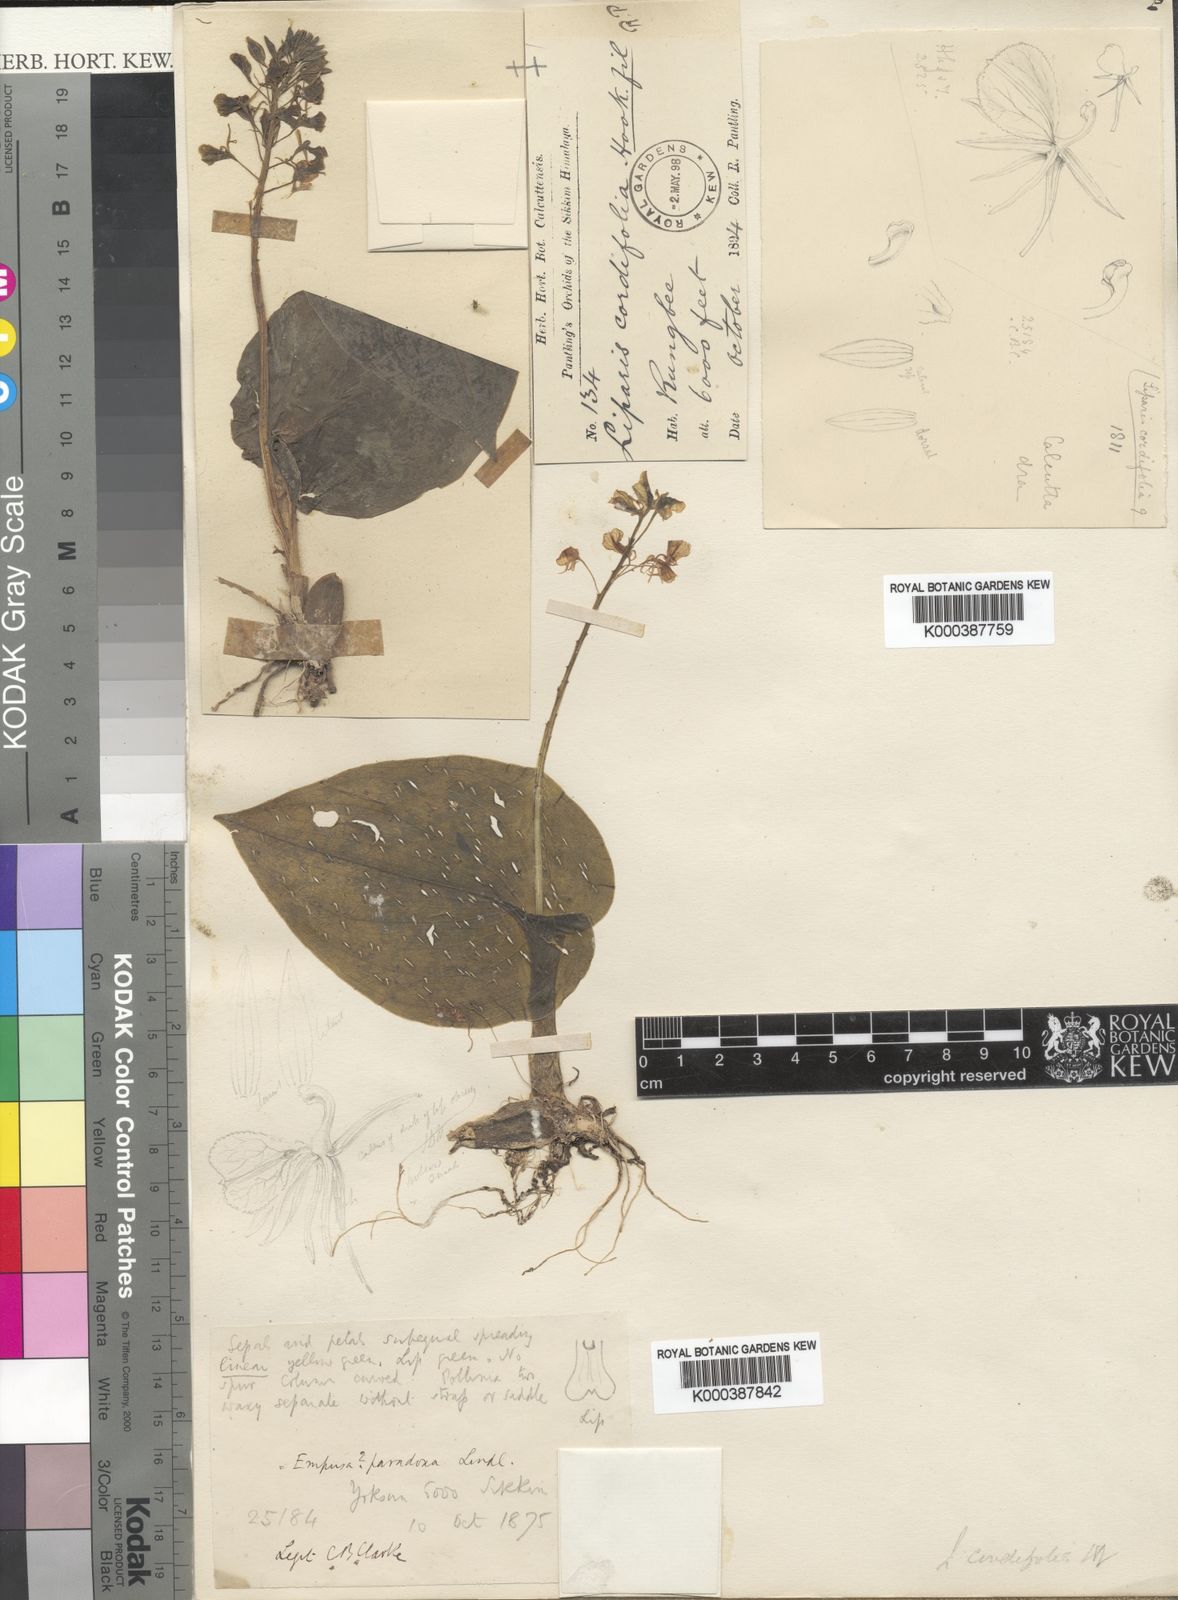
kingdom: Plantae
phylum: Tracheophyta
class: Liliopsida
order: Asparagales
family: Orchidaceae
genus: Liparis
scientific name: Liparis cordifolia
